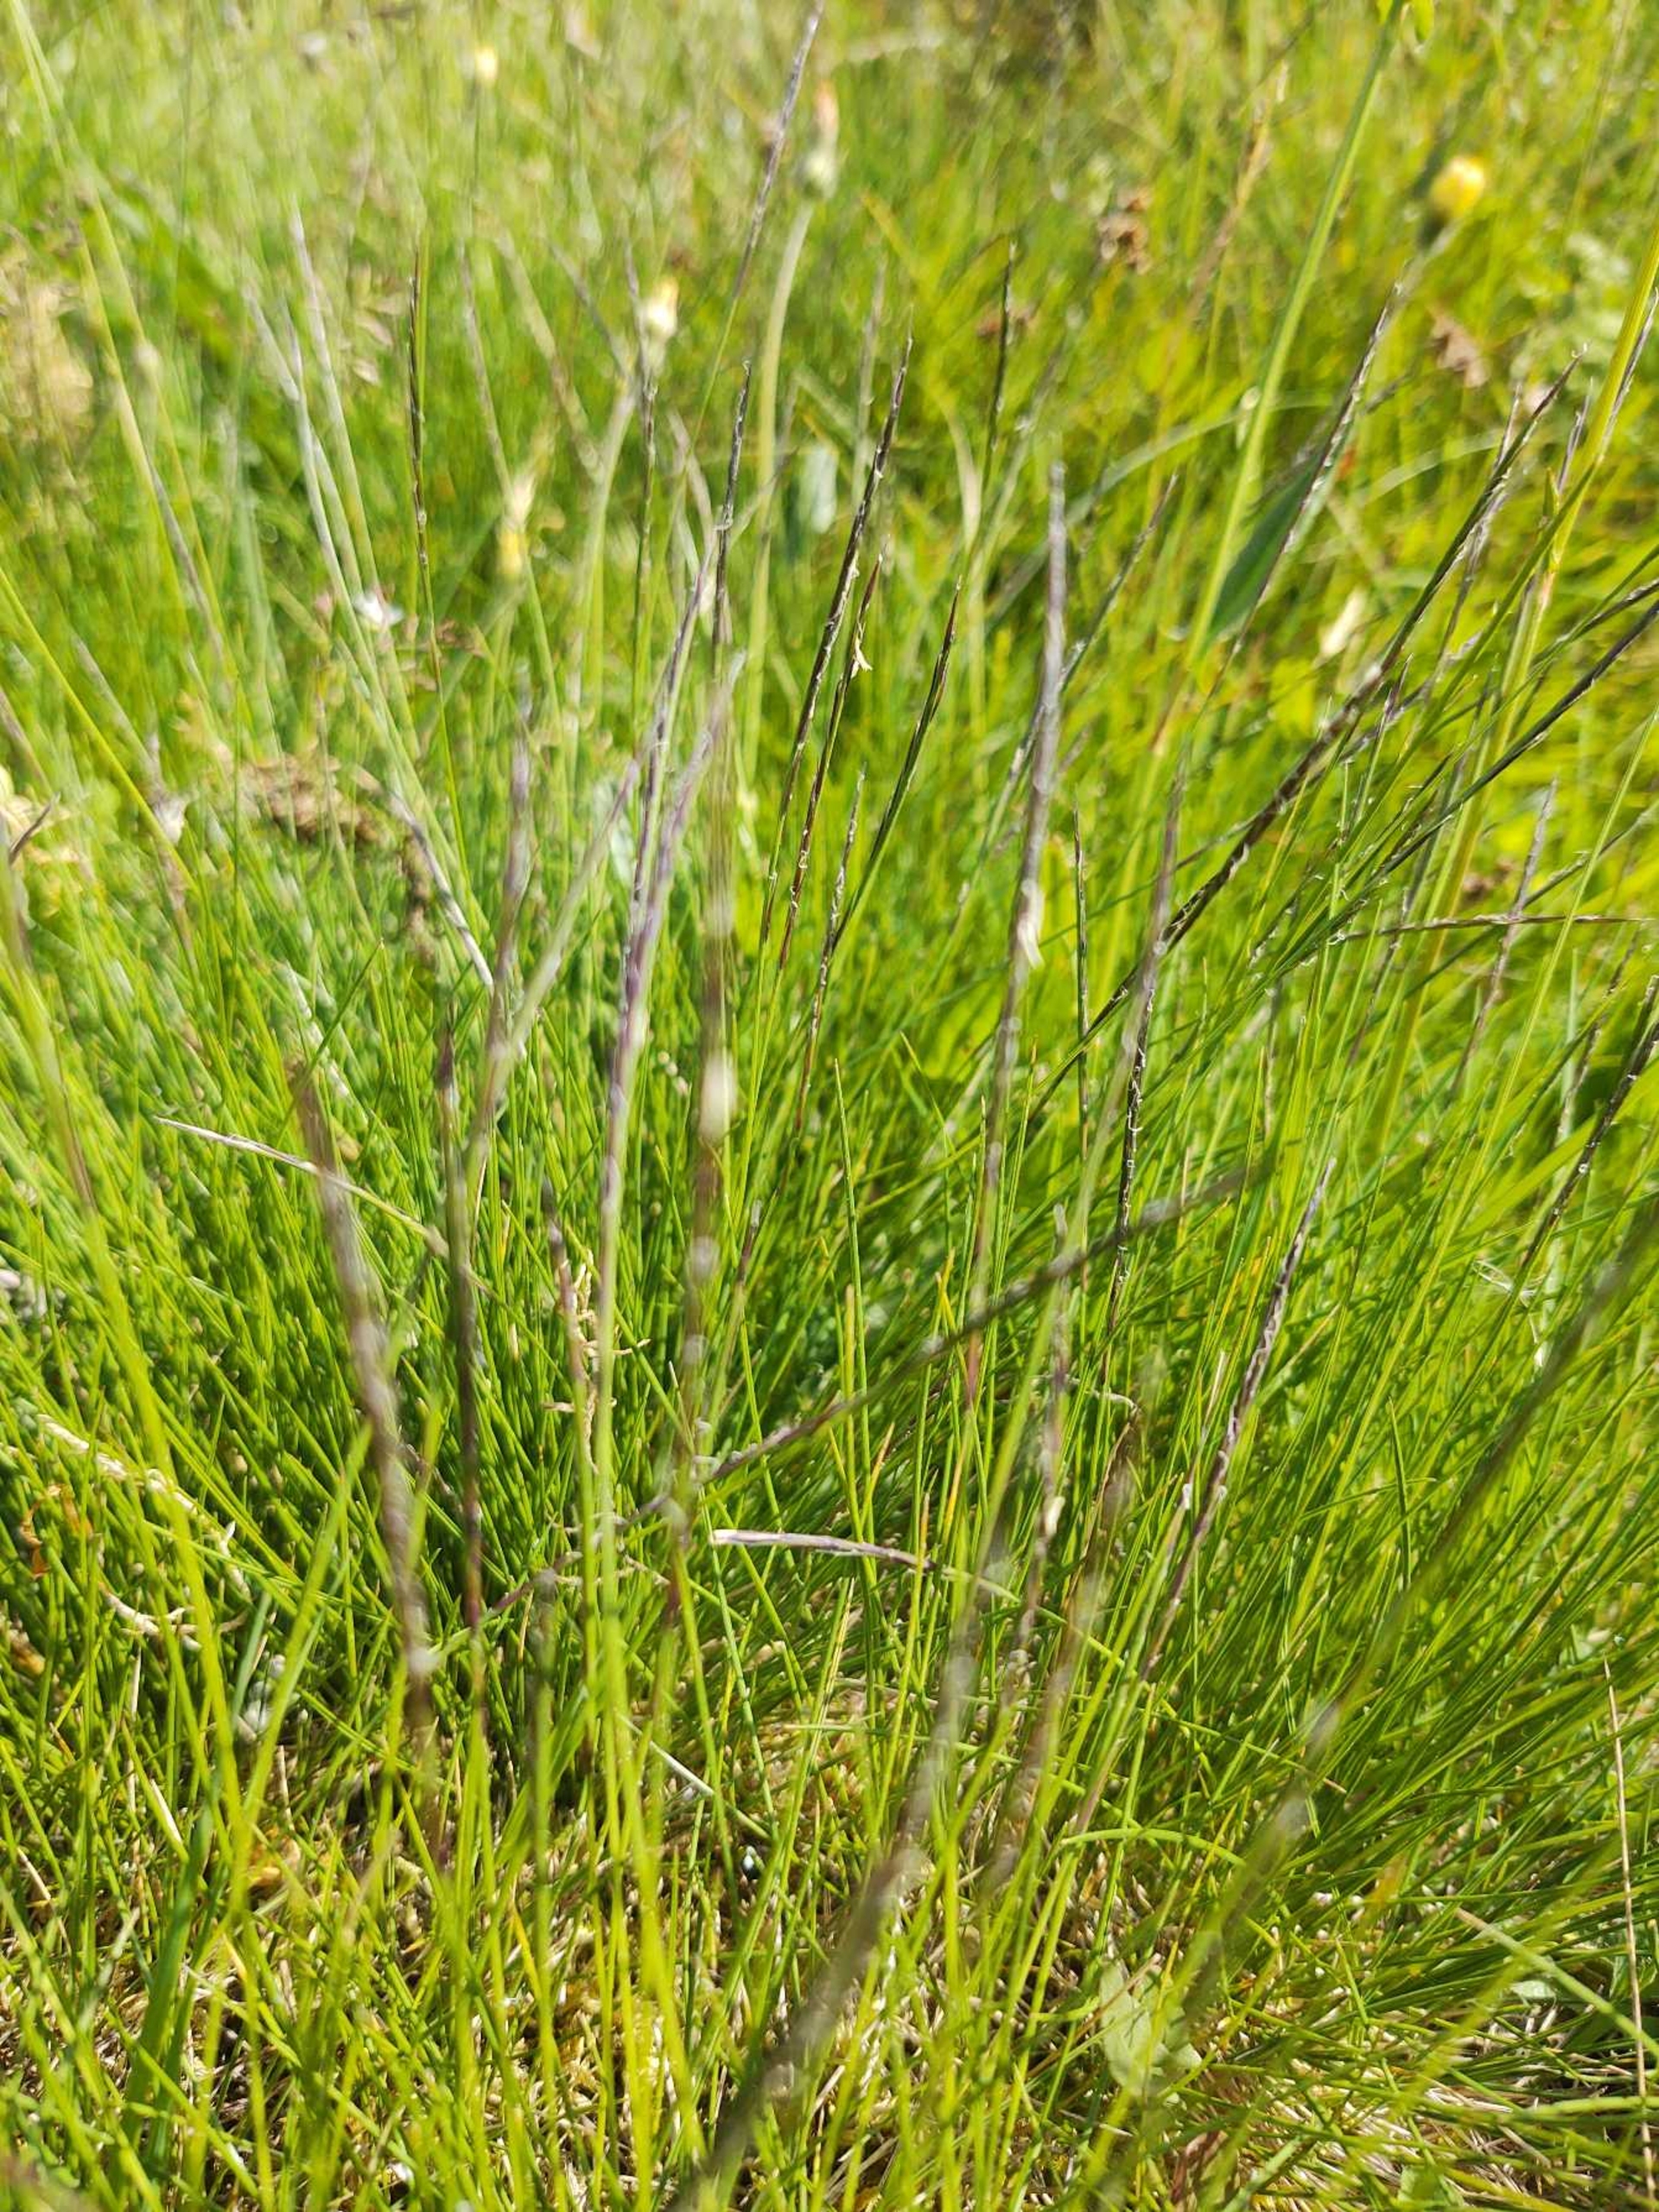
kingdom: Plantae
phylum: Tracheophyta
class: Liliopsida
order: Poales
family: Poaceae
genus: Nardus
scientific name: Nardus stricta
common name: Katteskæg
